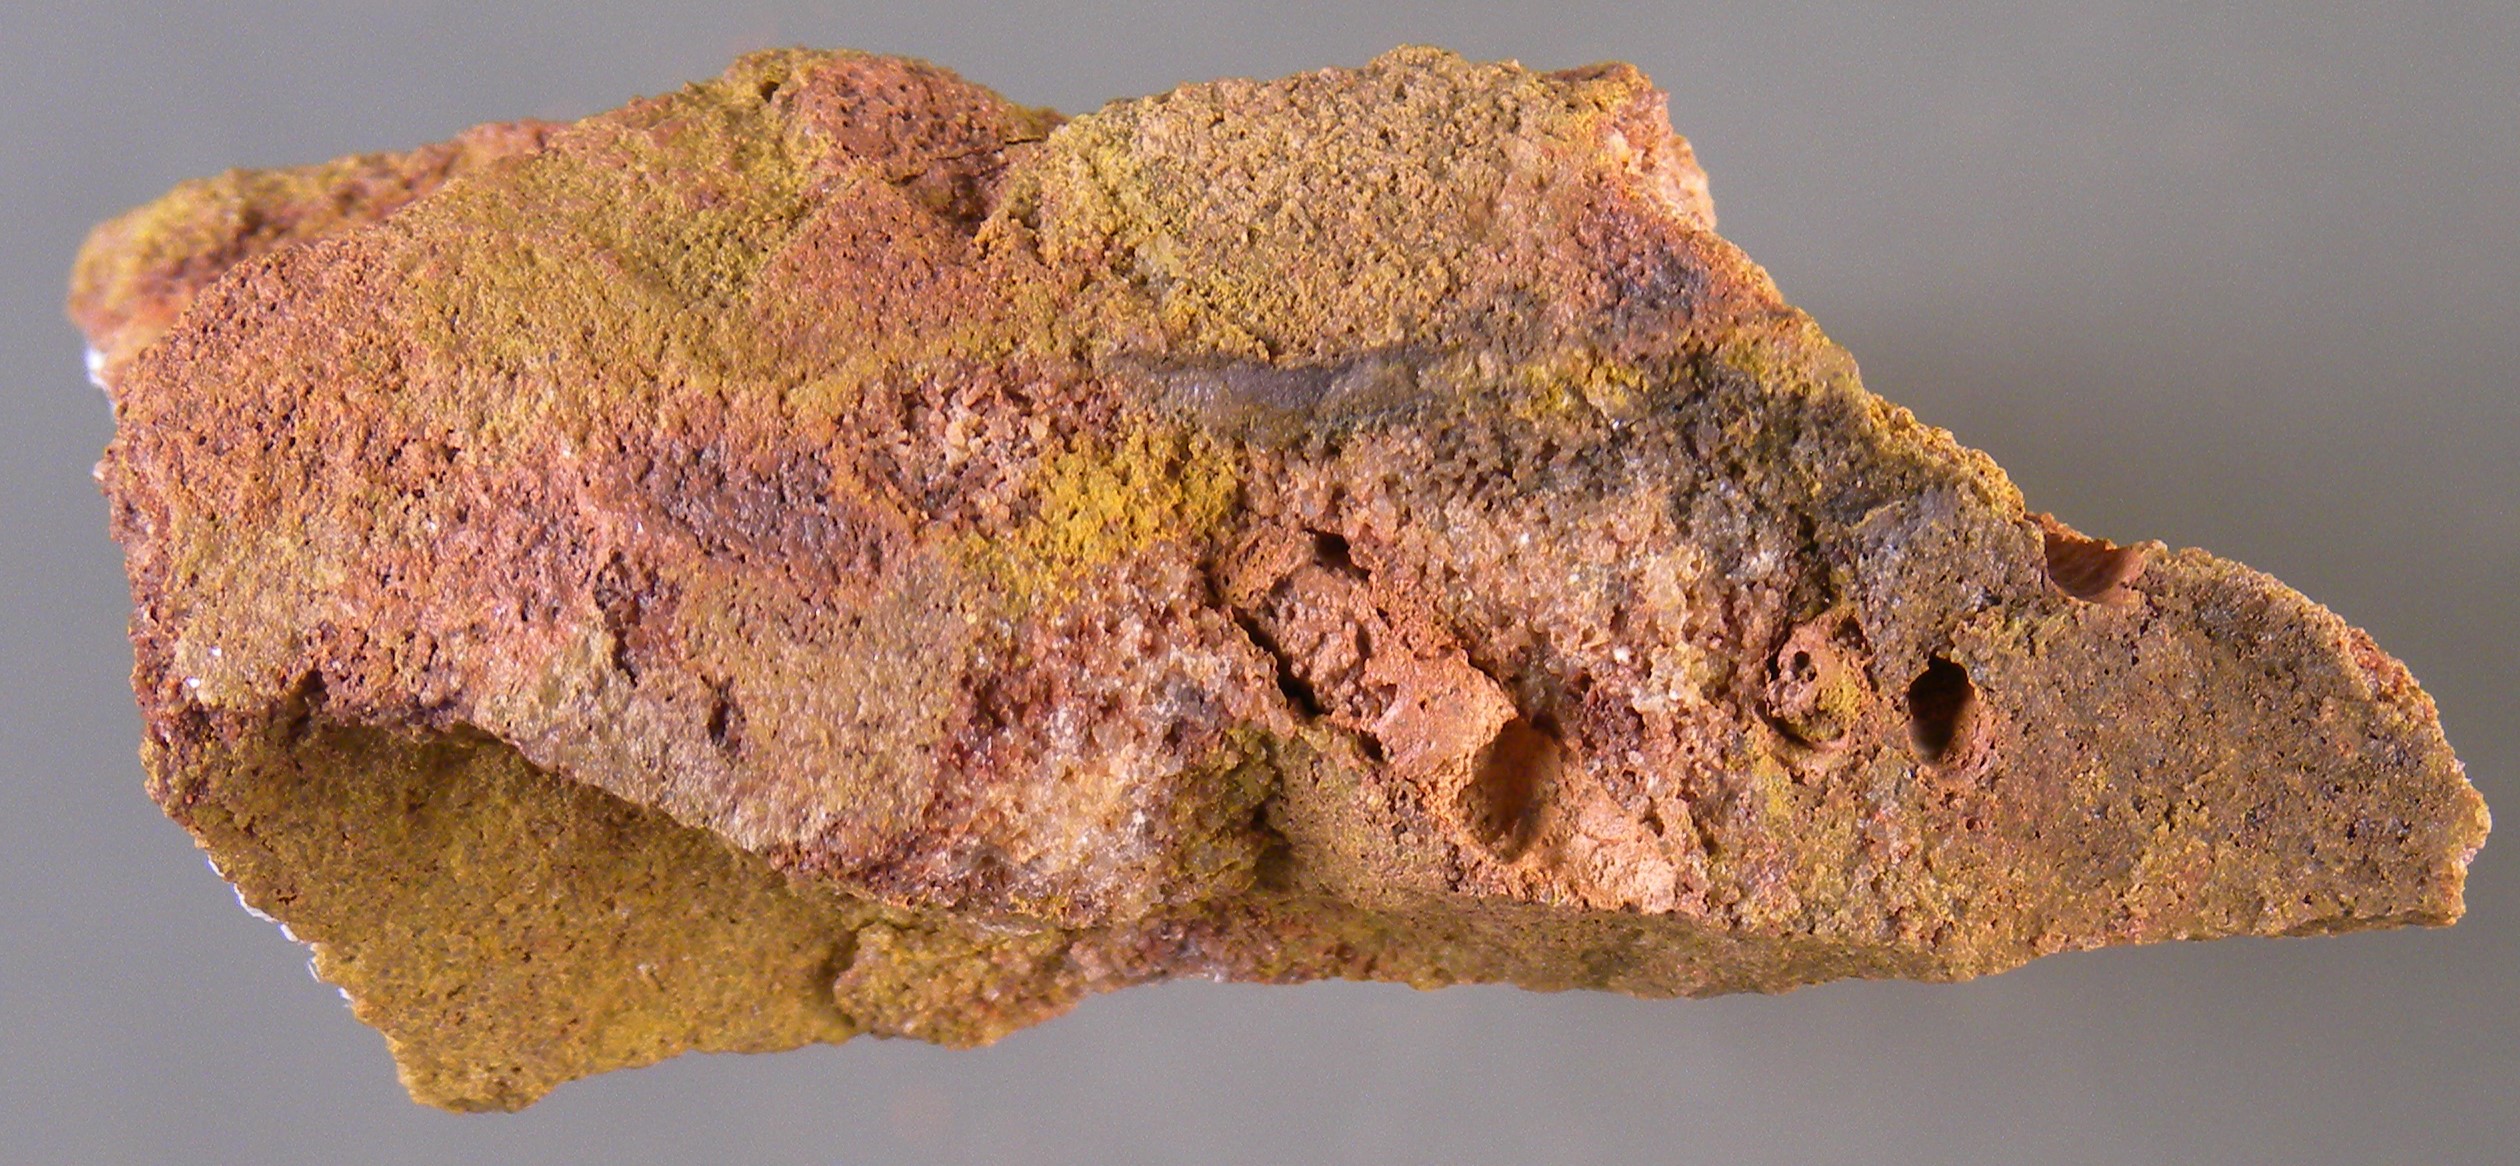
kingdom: Animalia
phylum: Mollusca
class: Cricoconarida
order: Tentaculitida
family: Tentaculitidae
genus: Tentaculites
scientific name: Tentaculites
